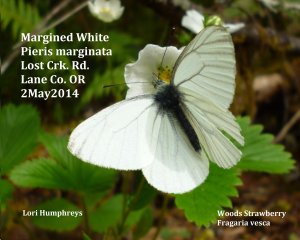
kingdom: Animalia
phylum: Arthropoda
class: Insecta
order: Lepidoptera
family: Pieridae
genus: Pieris
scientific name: Pieris marginalis
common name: Margined White
